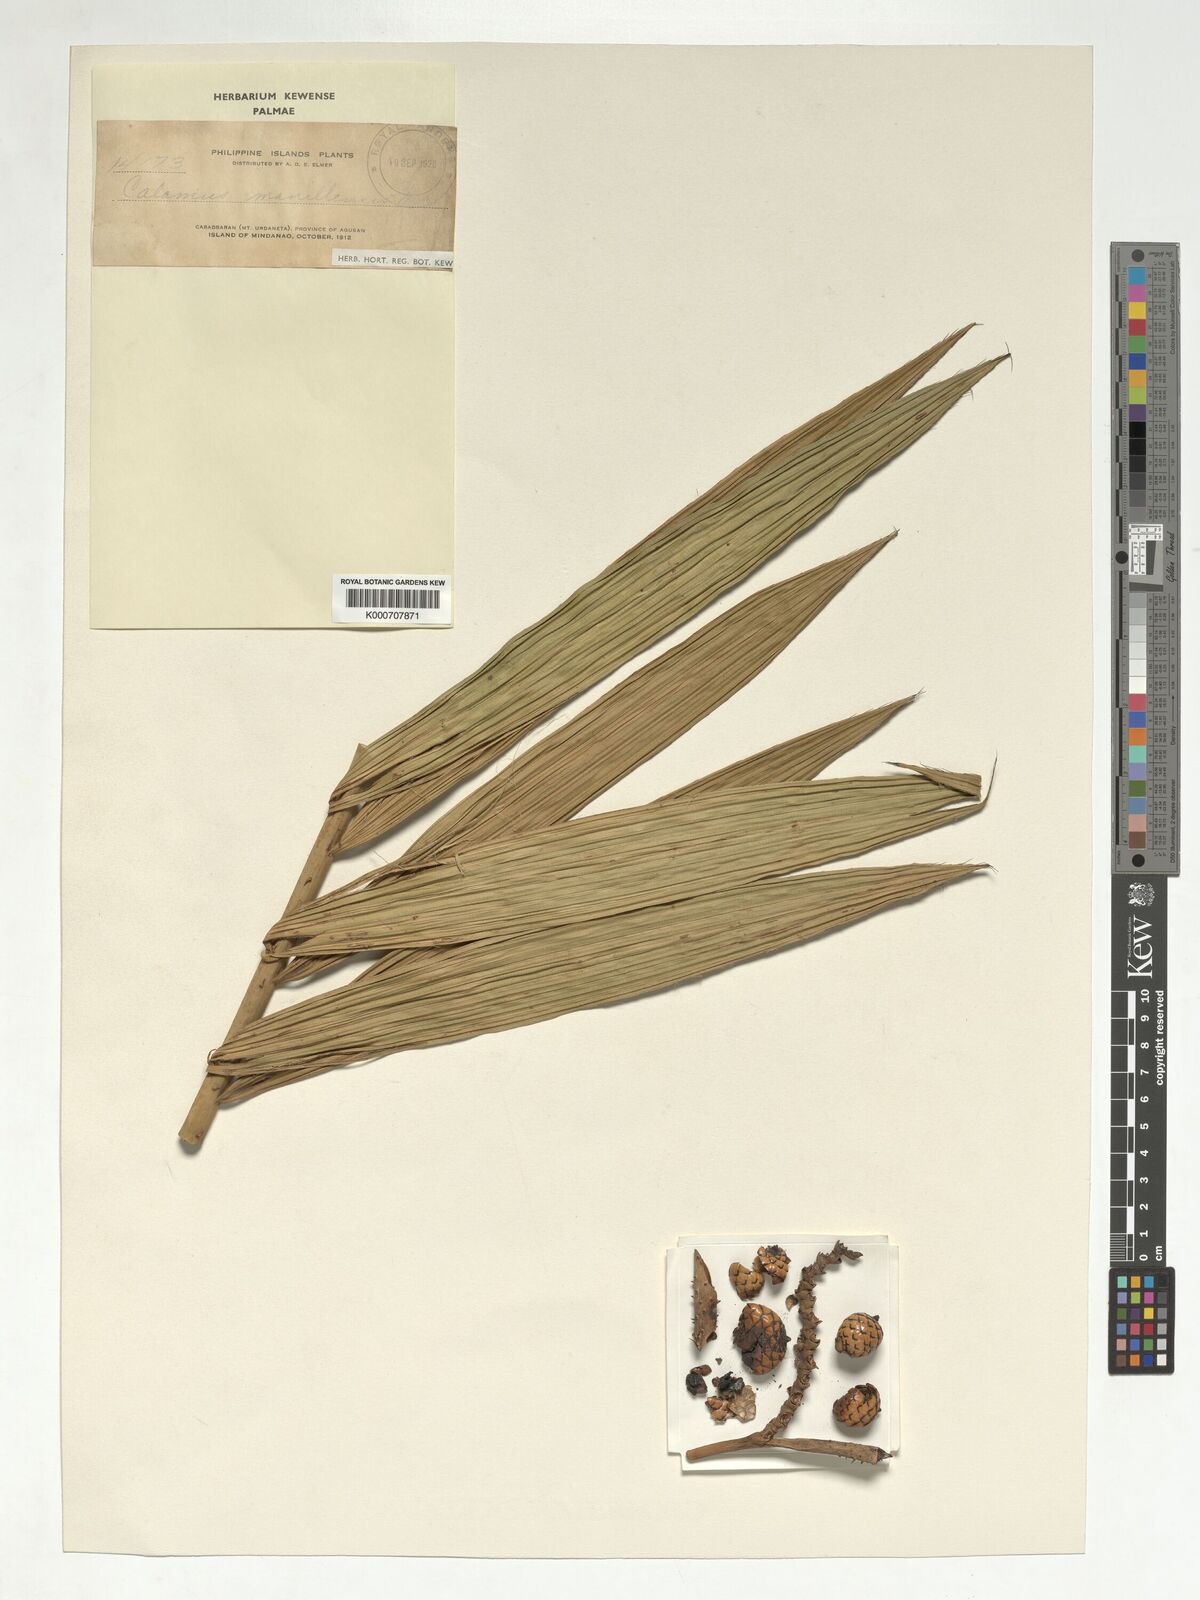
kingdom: Plantae
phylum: Tracheophyta
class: Liliopsida
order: Arecales
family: Arecaceae
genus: Calamus
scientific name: Calamus manillensis
